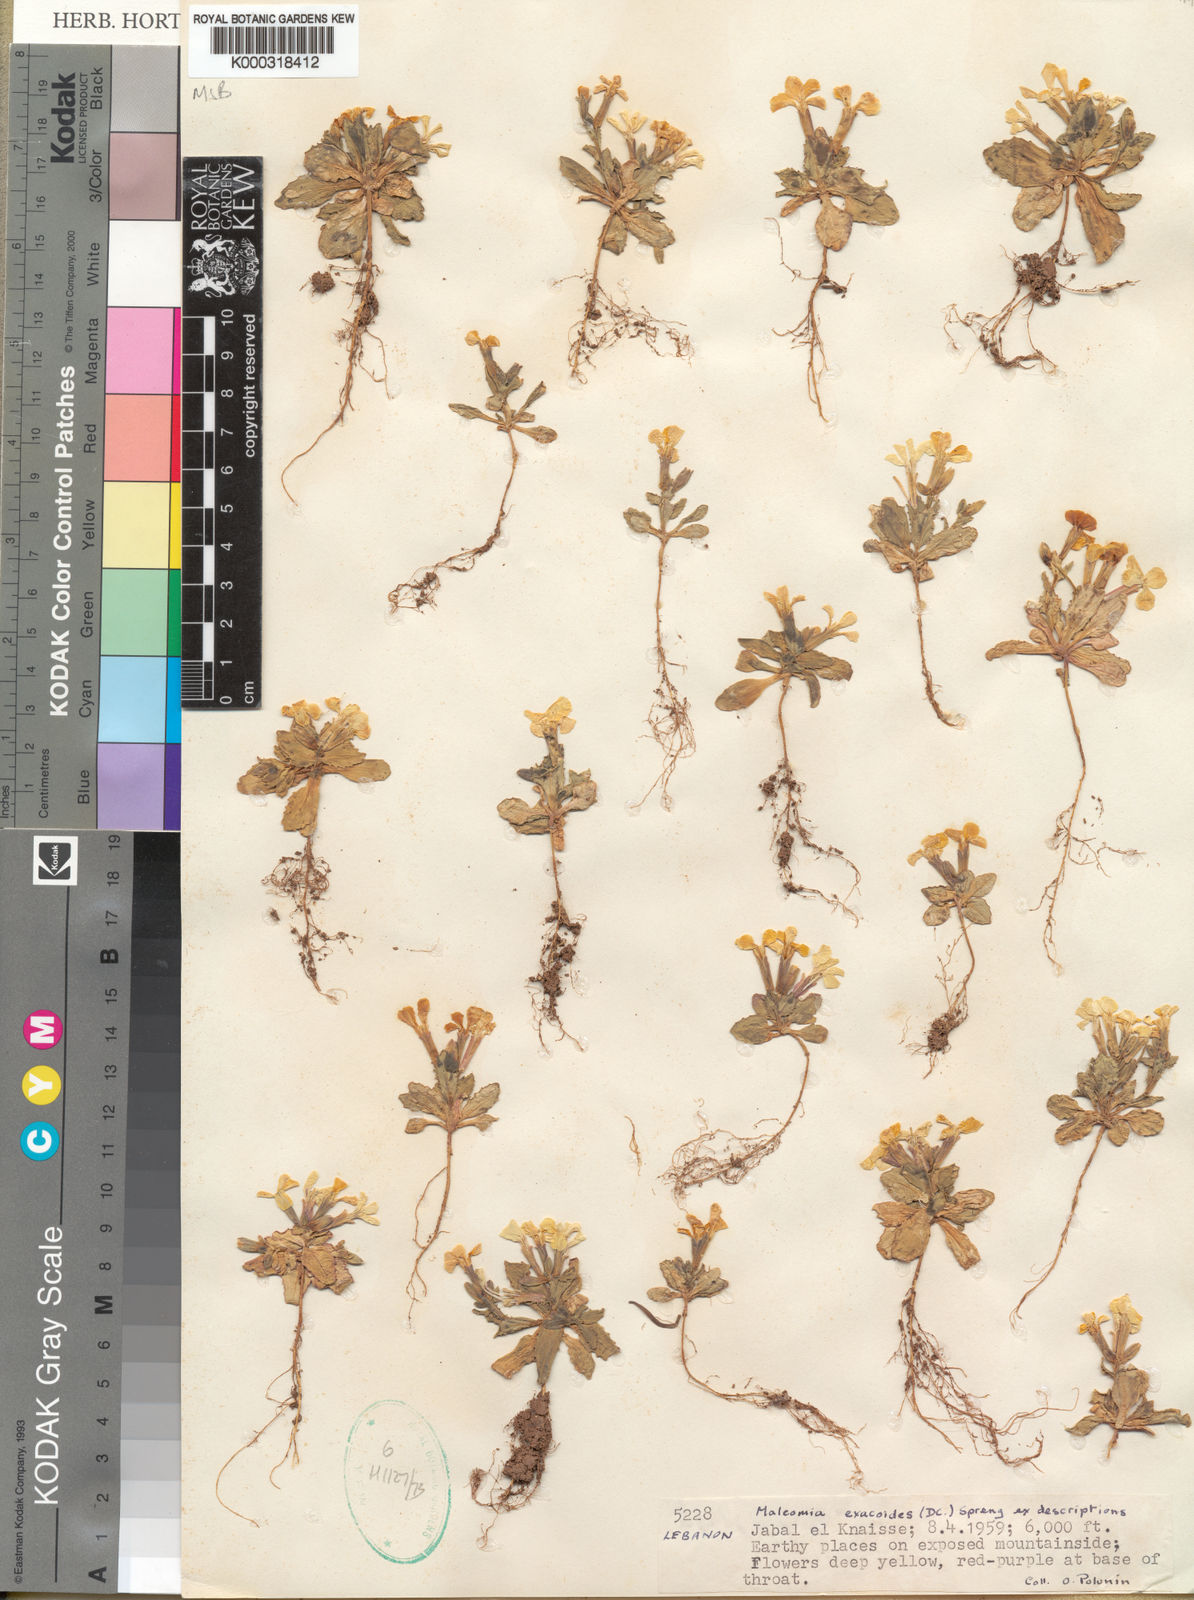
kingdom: Plantae
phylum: Tracheophyta
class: Magnoliopsida
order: Brassicales
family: Brassicaceae
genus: Zuvanda
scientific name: Zuvanda exacoides
